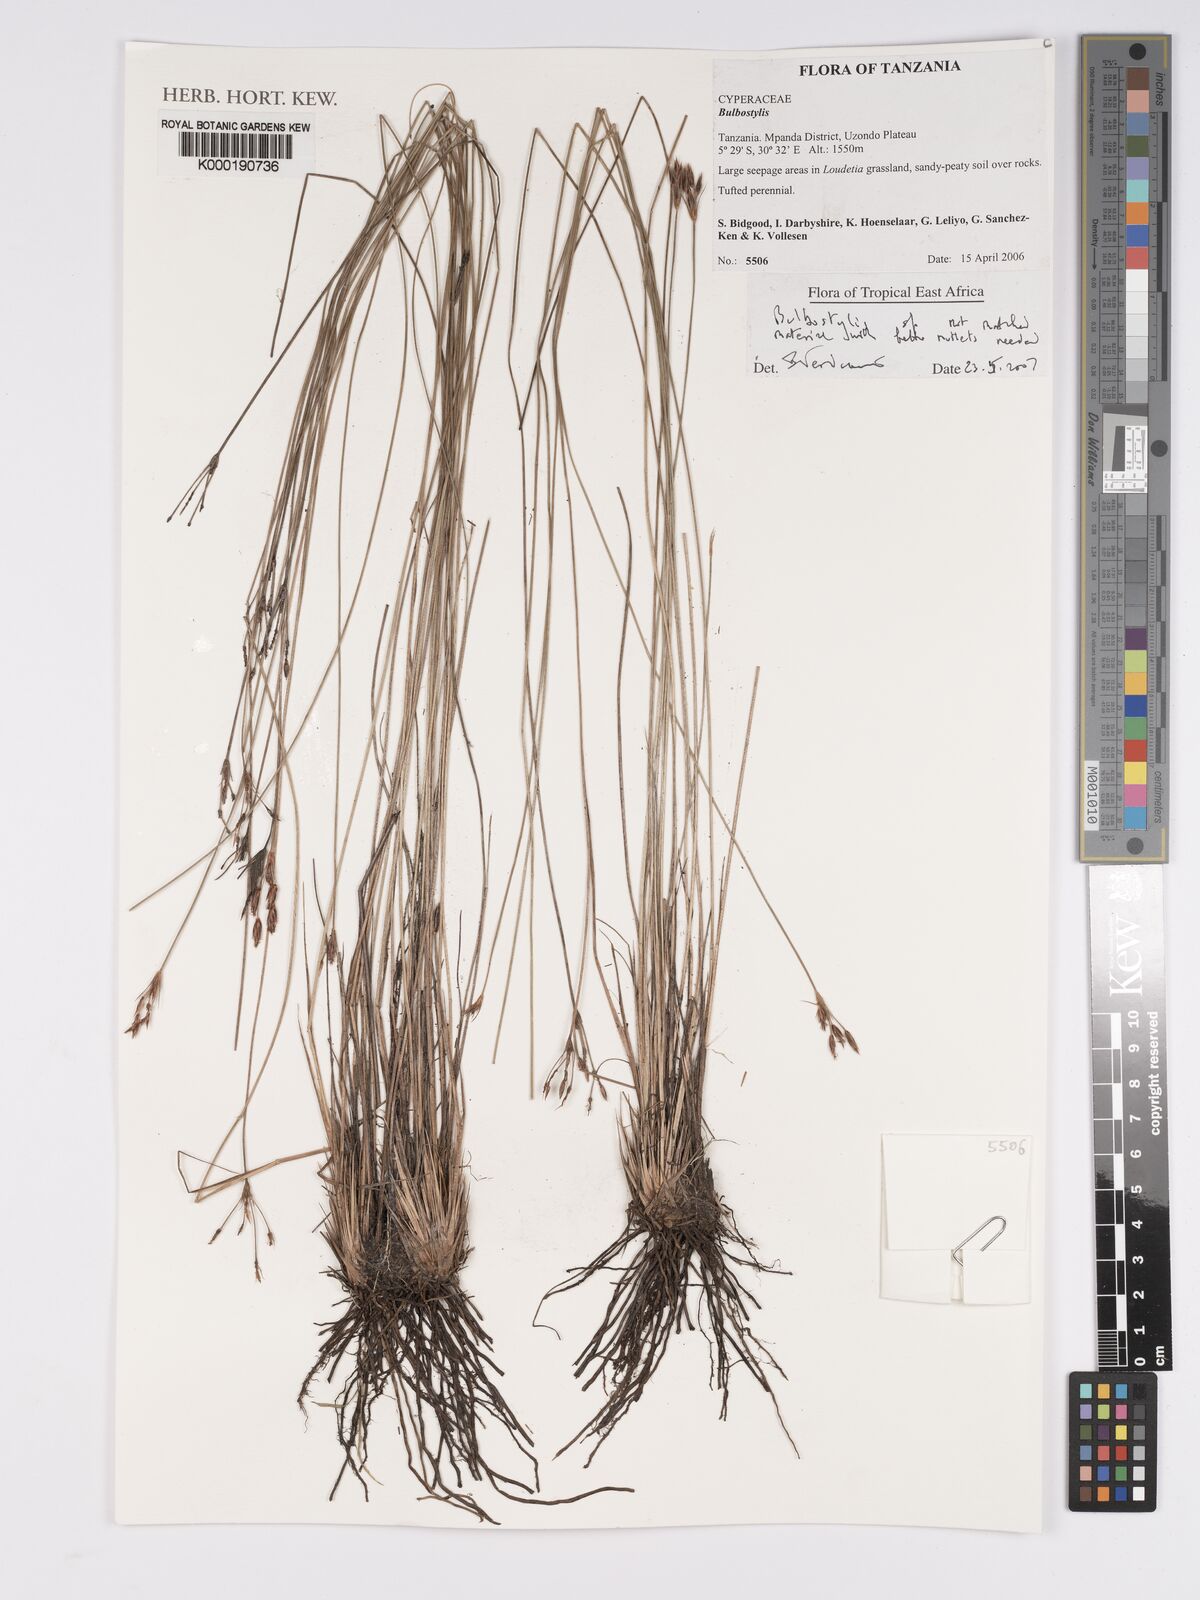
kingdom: Plantae
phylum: Tracheophyta
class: Liliopsida
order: Poales
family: Cyperaceae
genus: Bulbostylis
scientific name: Bulbostylis
